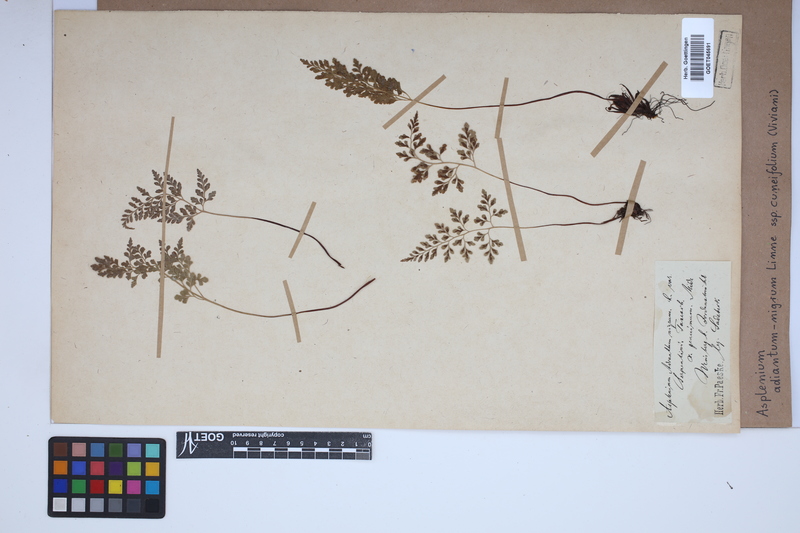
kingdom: Plantae
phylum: Tracheophyta
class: Polypodiopsida
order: Polypodiales
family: Aspleniaceae
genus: Asplenium
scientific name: Asplenium cuneifolium
